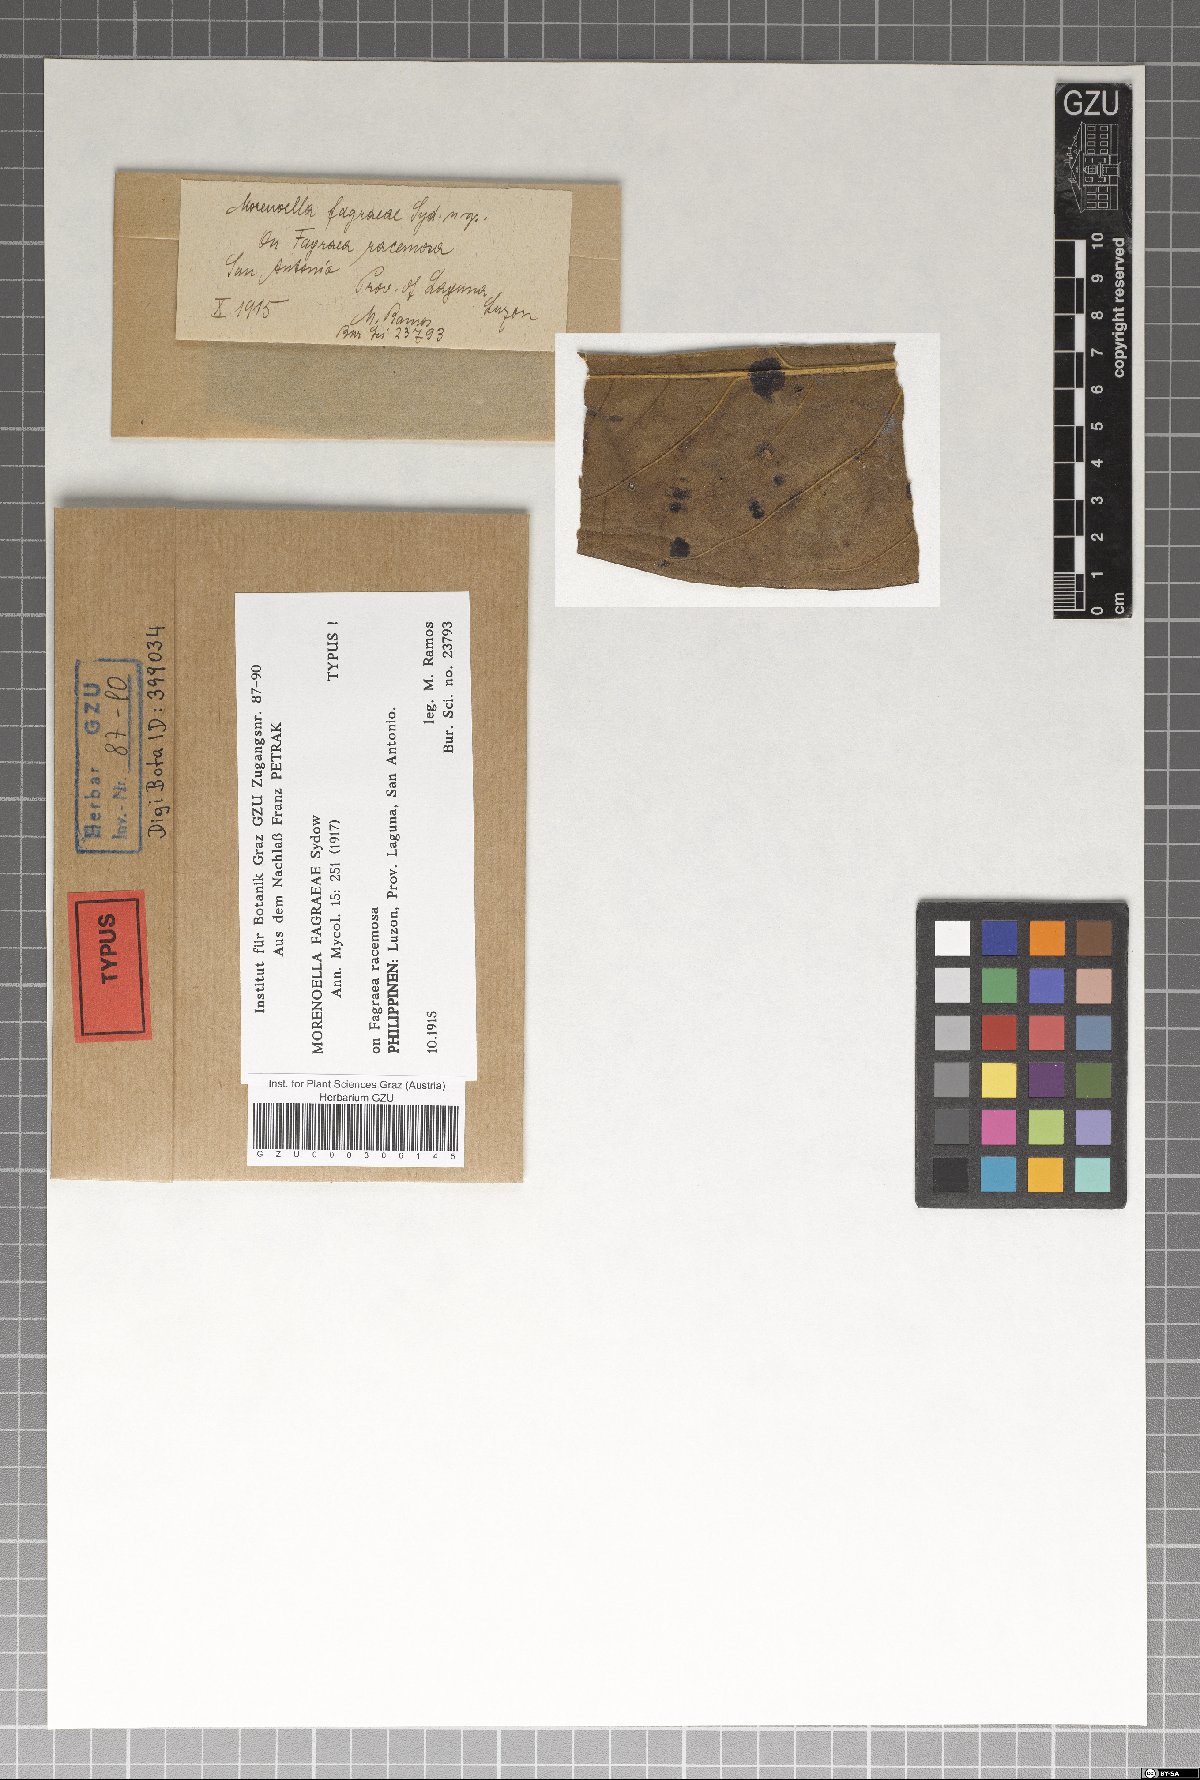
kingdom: Fungi
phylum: Ascomycota
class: Dothideomycetes
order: Asterinales
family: Asterinaceae
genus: Lembosia
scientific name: Lembosia fagraeae
